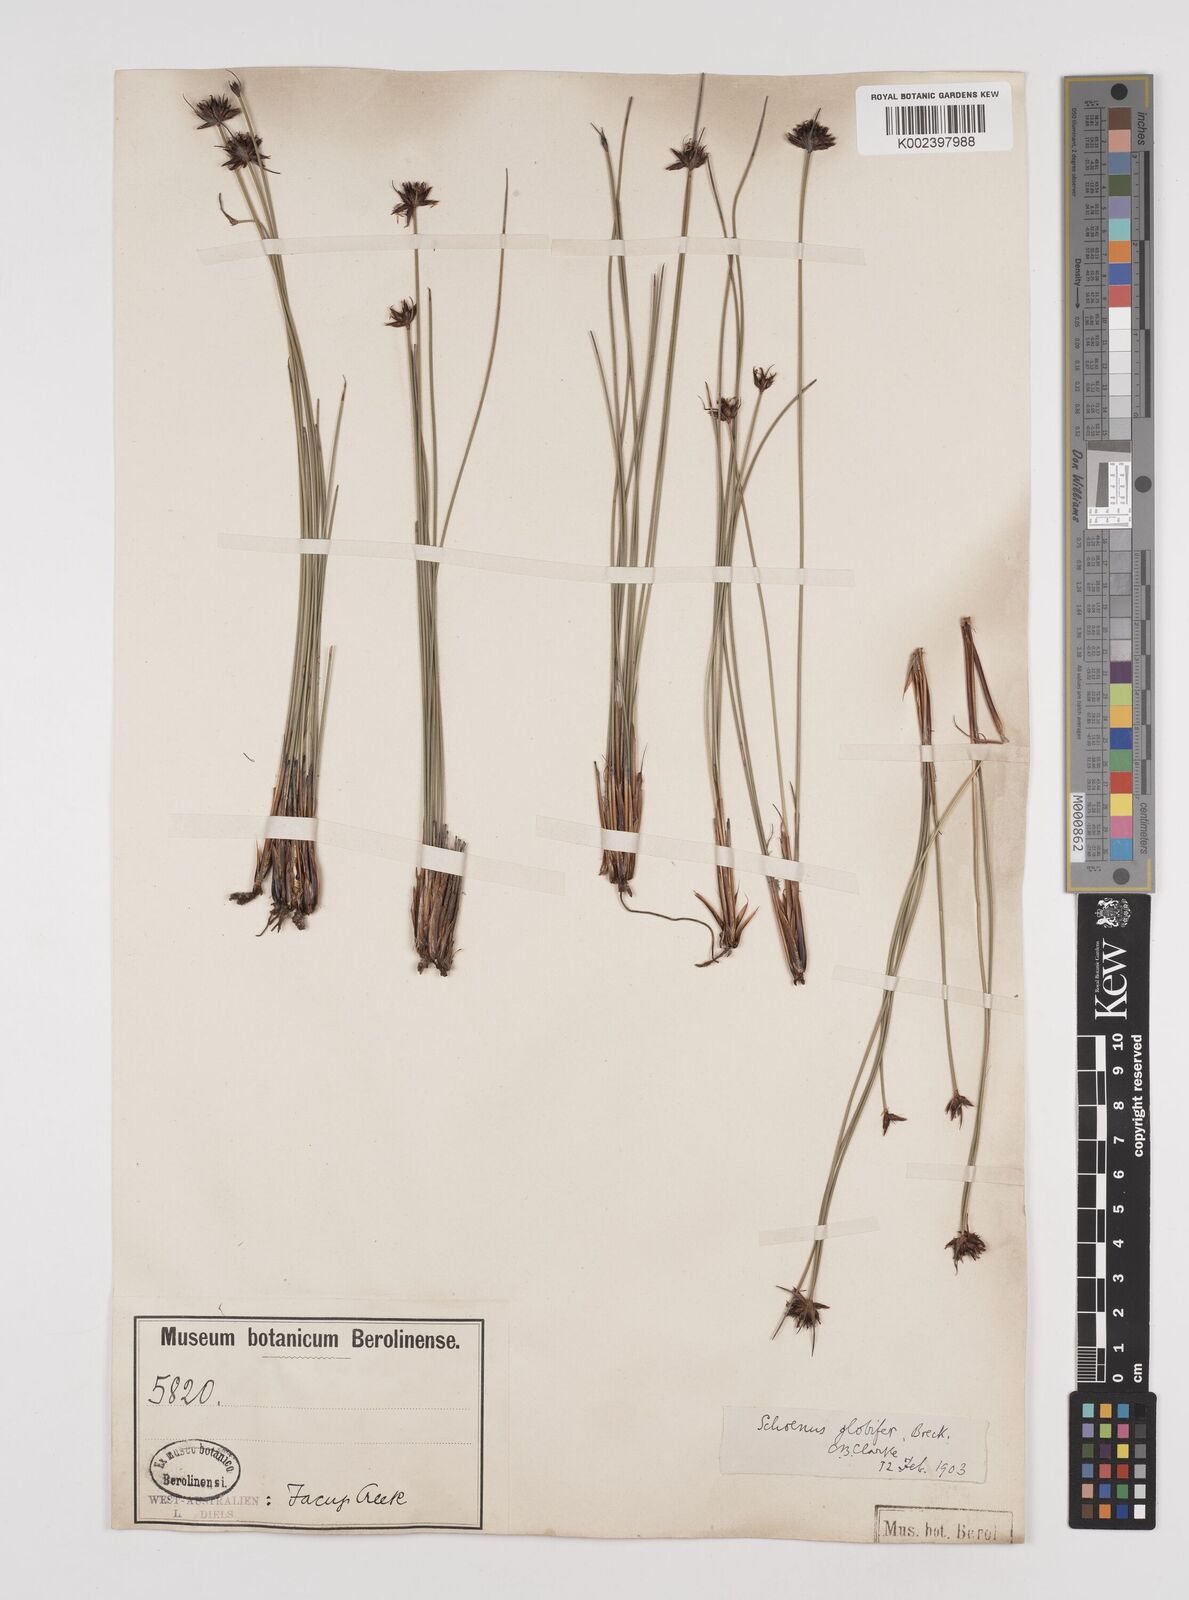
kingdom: Plantae
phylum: Tracheophyta
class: Liliopsida
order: Poales
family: Cyperaceae
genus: Schoenus
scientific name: Schoenus globifer
